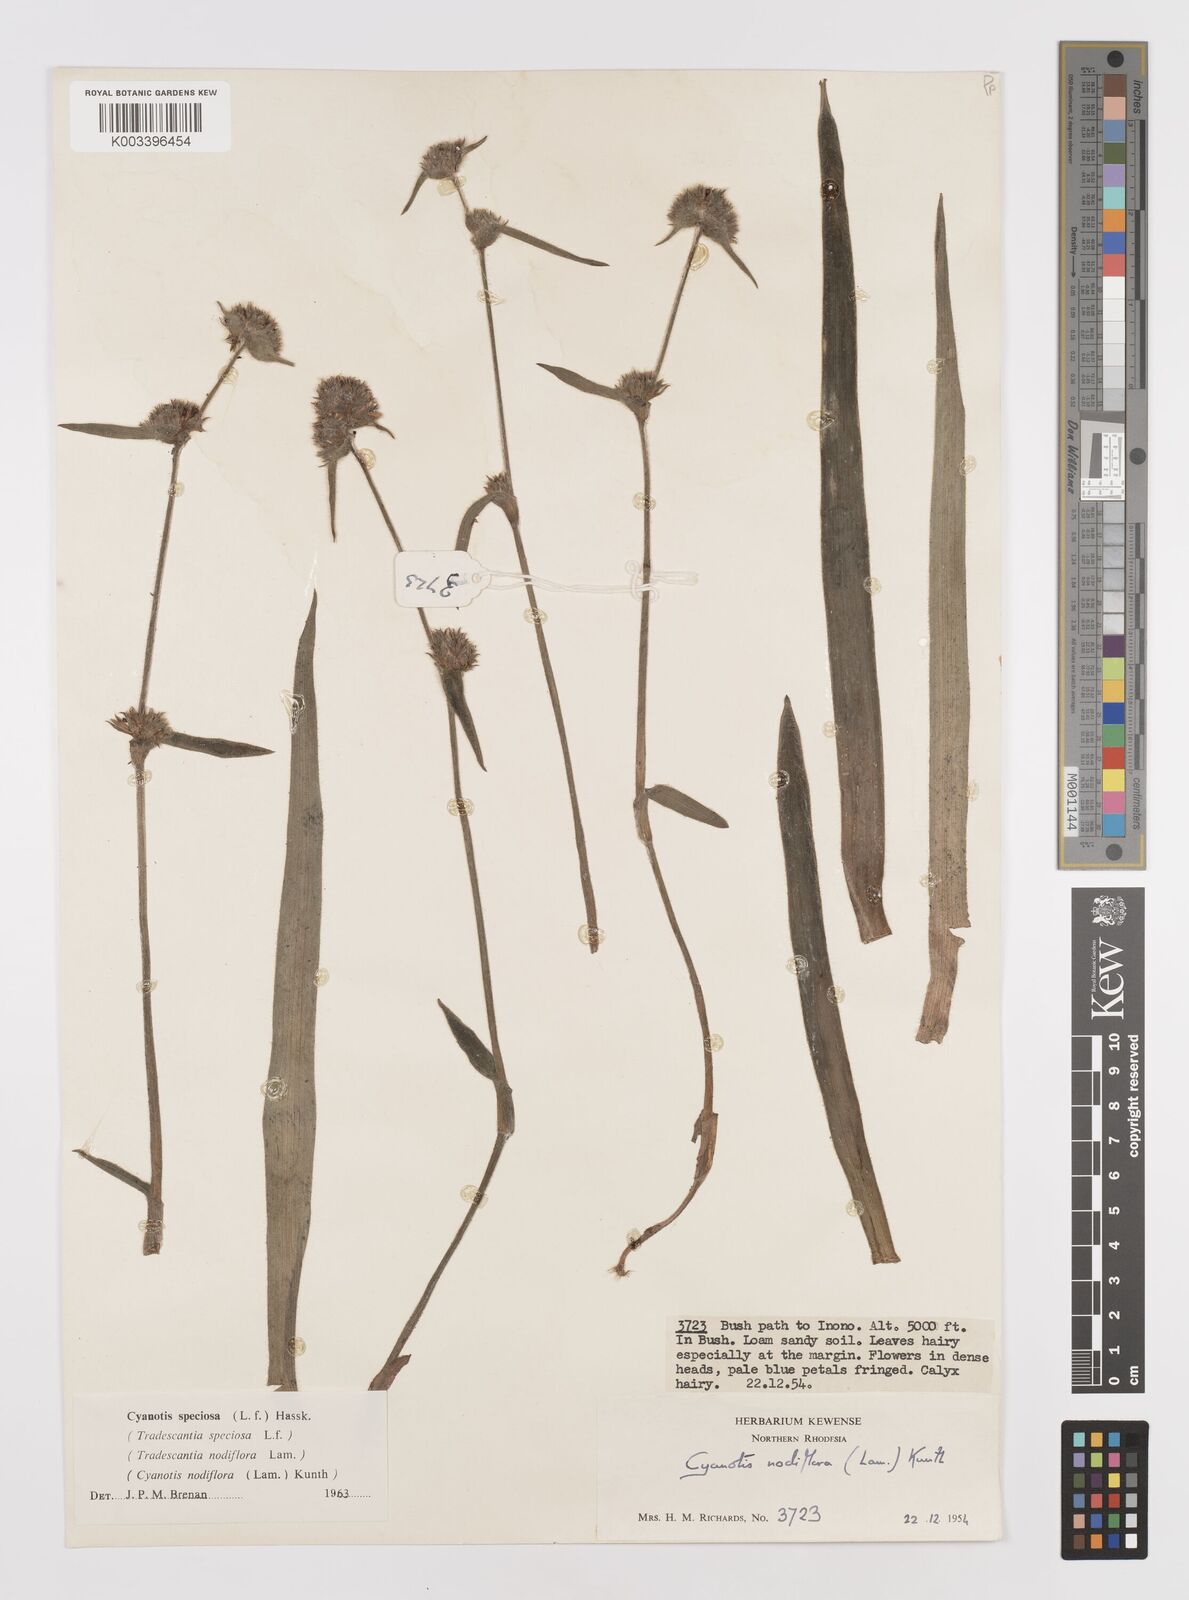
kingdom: Plantae
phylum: Tracheophyta
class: Liliopsida
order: Commelinales
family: Commelinaceae
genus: Cyanotis
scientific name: Cyanotis speciosa
